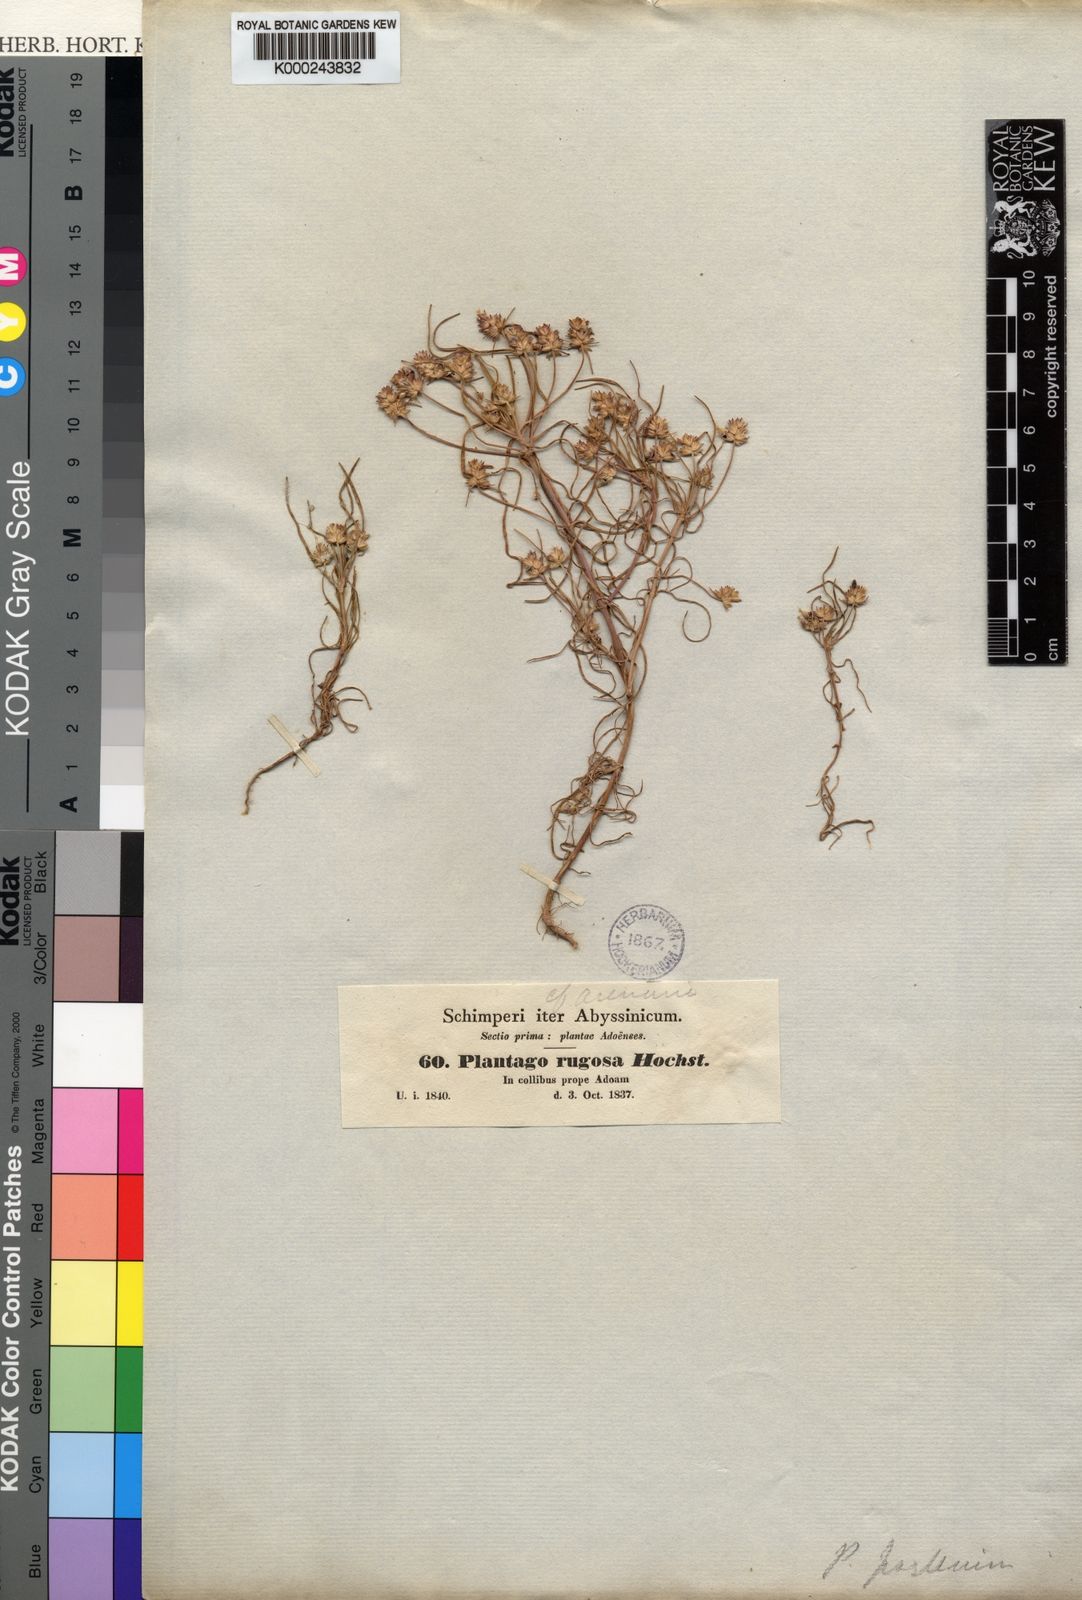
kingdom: Plantae
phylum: Tracheophyta
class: Magnoliopsida
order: Lamiales
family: Plantaginaceae
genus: Plantago
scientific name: Plantago afra
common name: Glandular plantain
